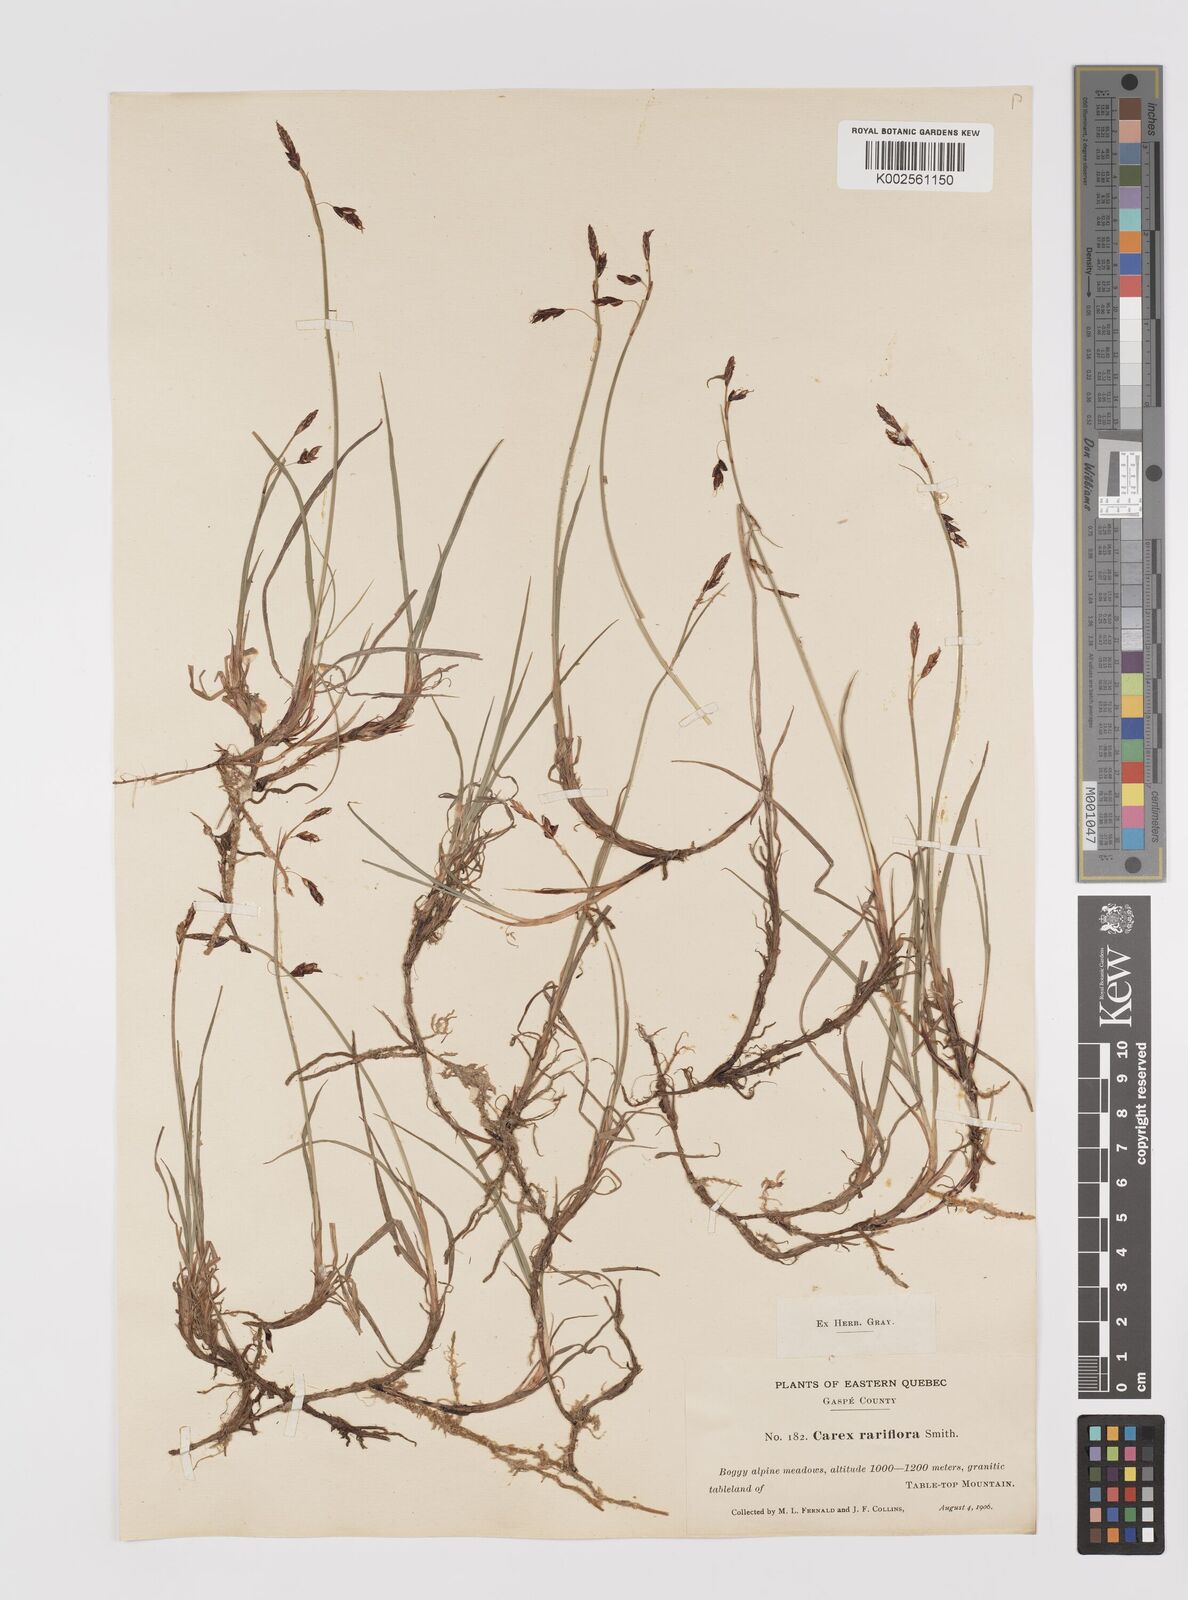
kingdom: Plantae
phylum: Tracheophyta
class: Liliopsida
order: Poales
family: Cyperaceae
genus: Carex
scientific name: Carex rariflora
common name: Loose-flowered alpine sedge
